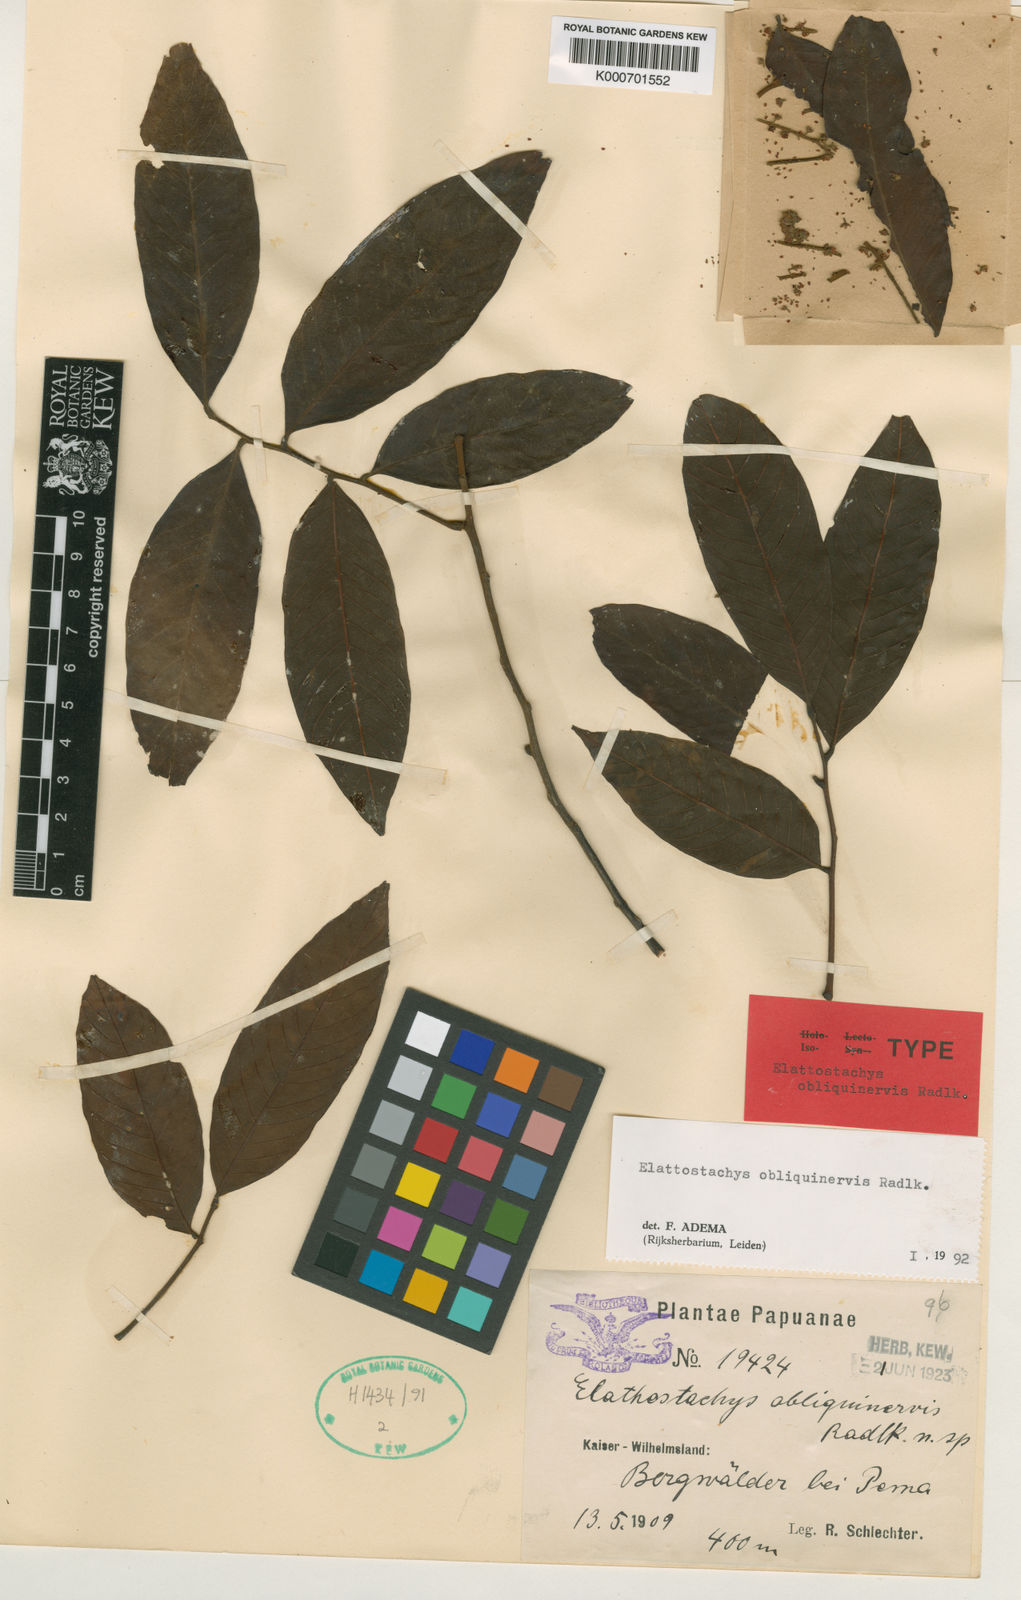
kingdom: Plantae
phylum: Tracheophyta
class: Magnoliopsida
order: Sapindales
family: Sapindaceae
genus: Elattostachys
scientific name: Elattostachys obliquinervis
